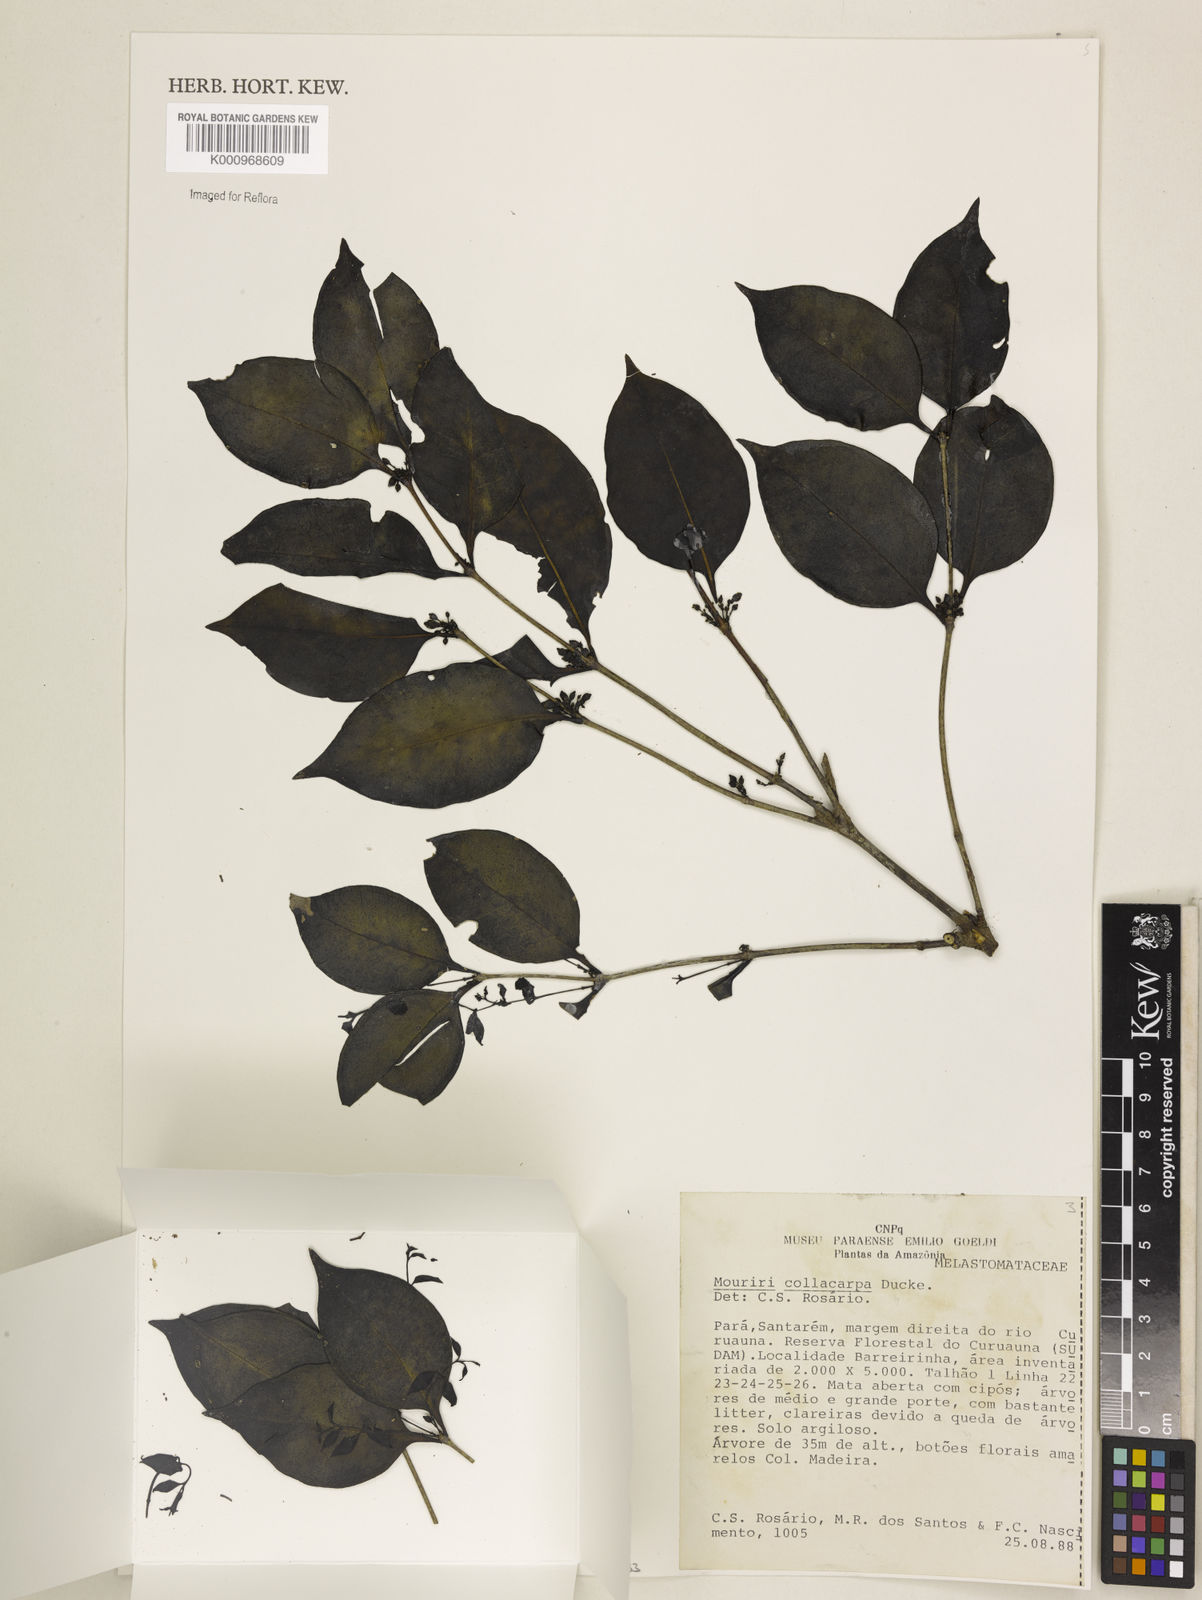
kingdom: Plantae
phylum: Tracheophyta
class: Magnoliopsida
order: Myrtales
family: Melastomataceae
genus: Mouriri
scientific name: Mouriri collocarpa
